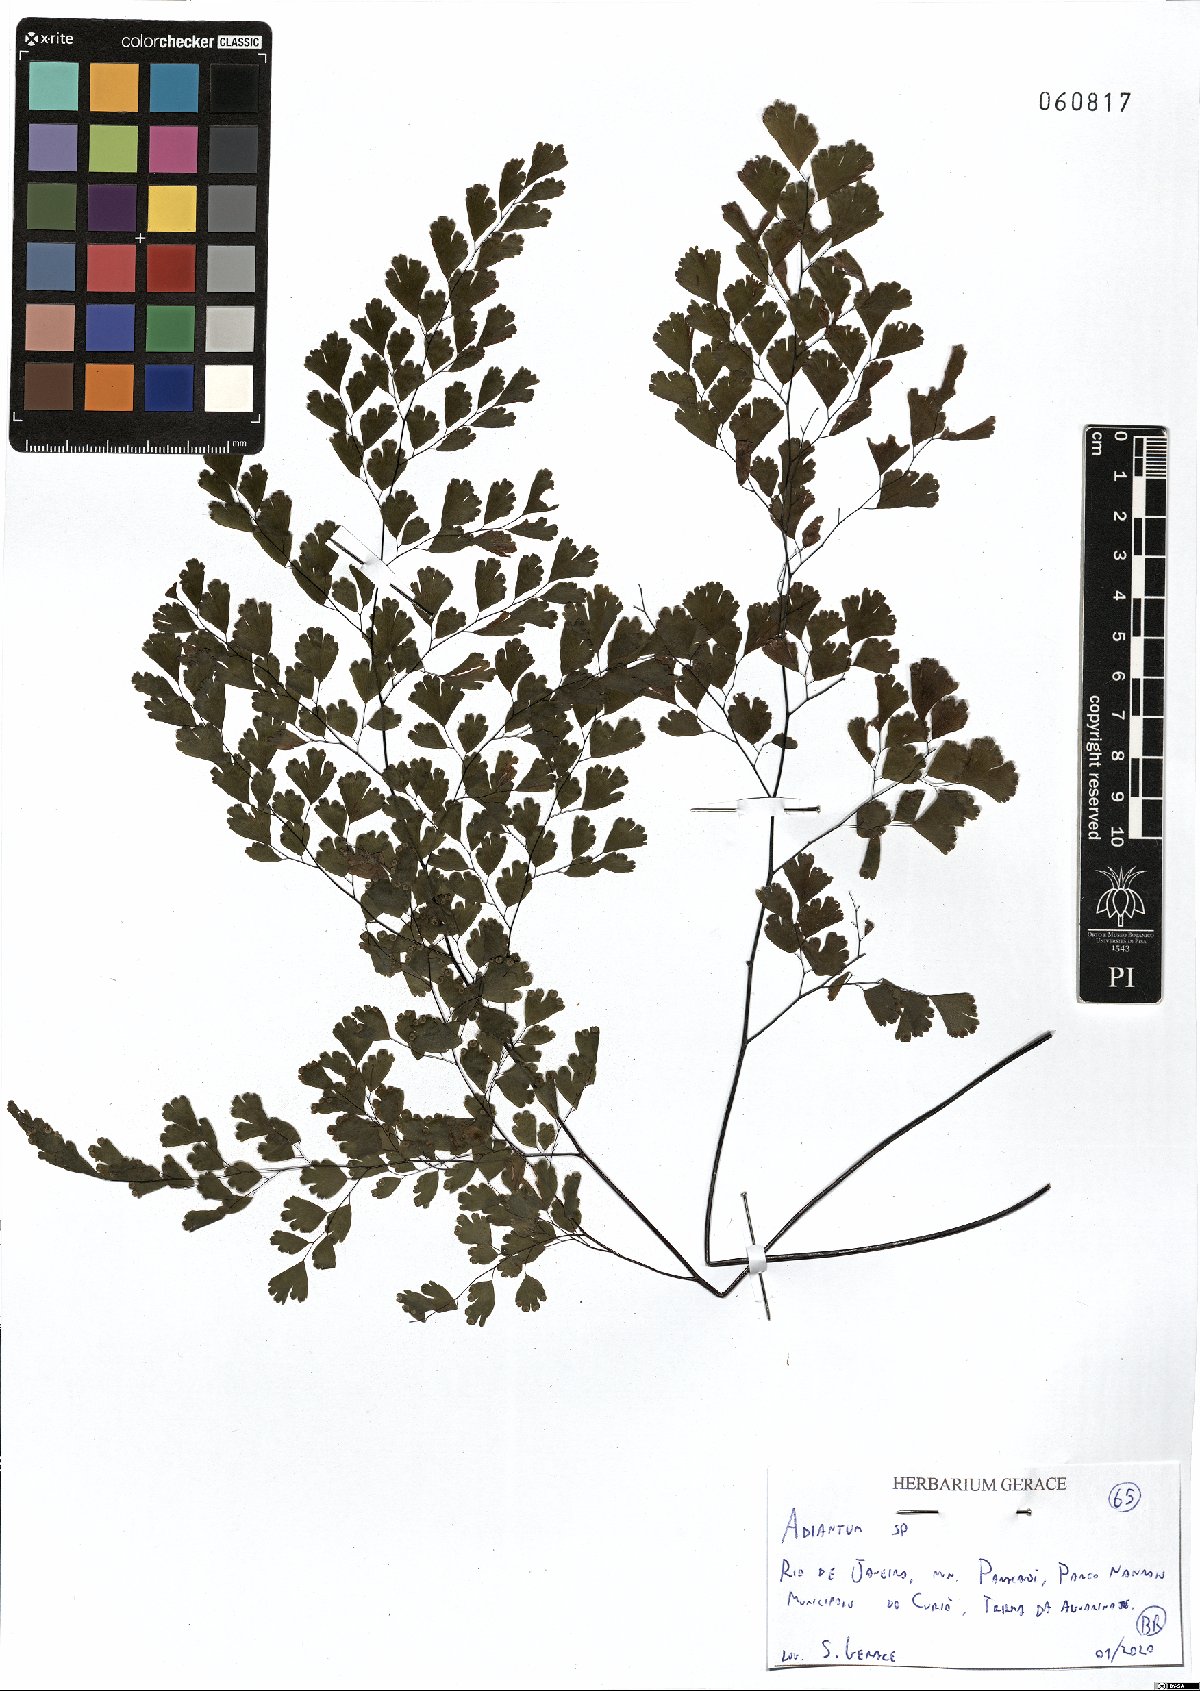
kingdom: Plantae
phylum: Tracheophyta
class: Polypodiopsida
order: Polypodiales
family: Pteridaceae
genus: Adiantum
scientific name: Adiantum
